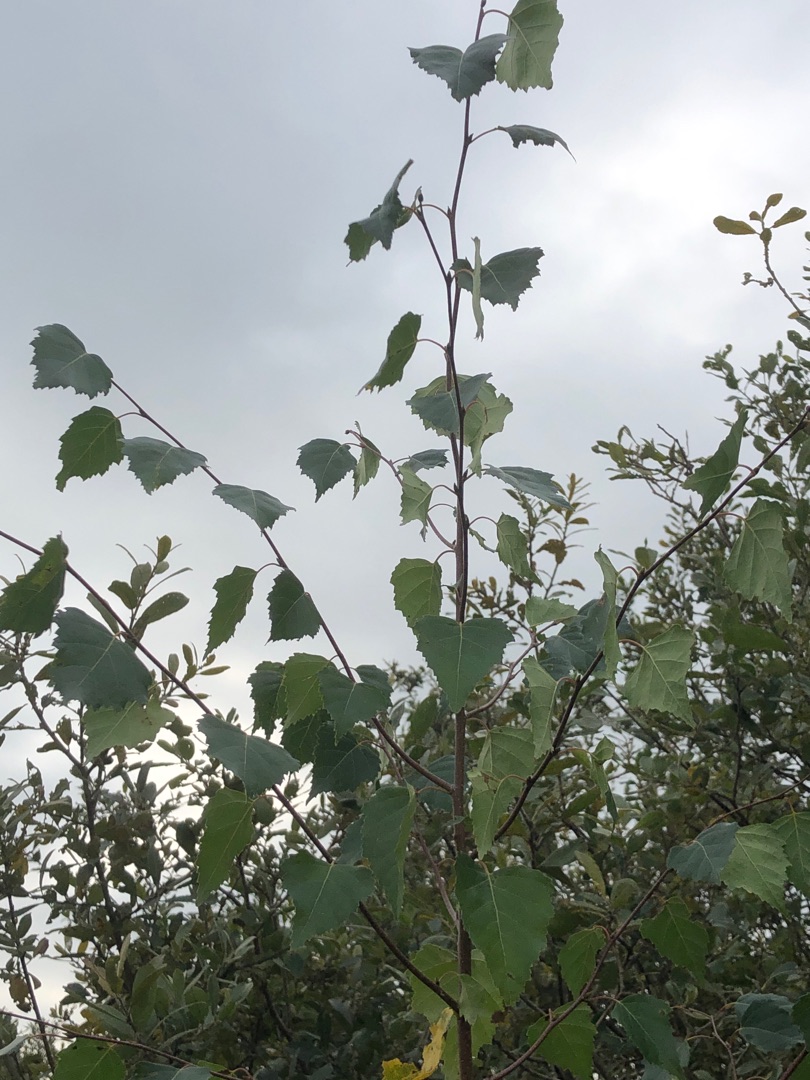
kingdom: Plantae
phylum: Tracheophyta
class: Magnoliopsida
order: Fagales
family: Betulaceae
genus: Betula
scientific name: Betula pendula
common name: Vorte-birk
